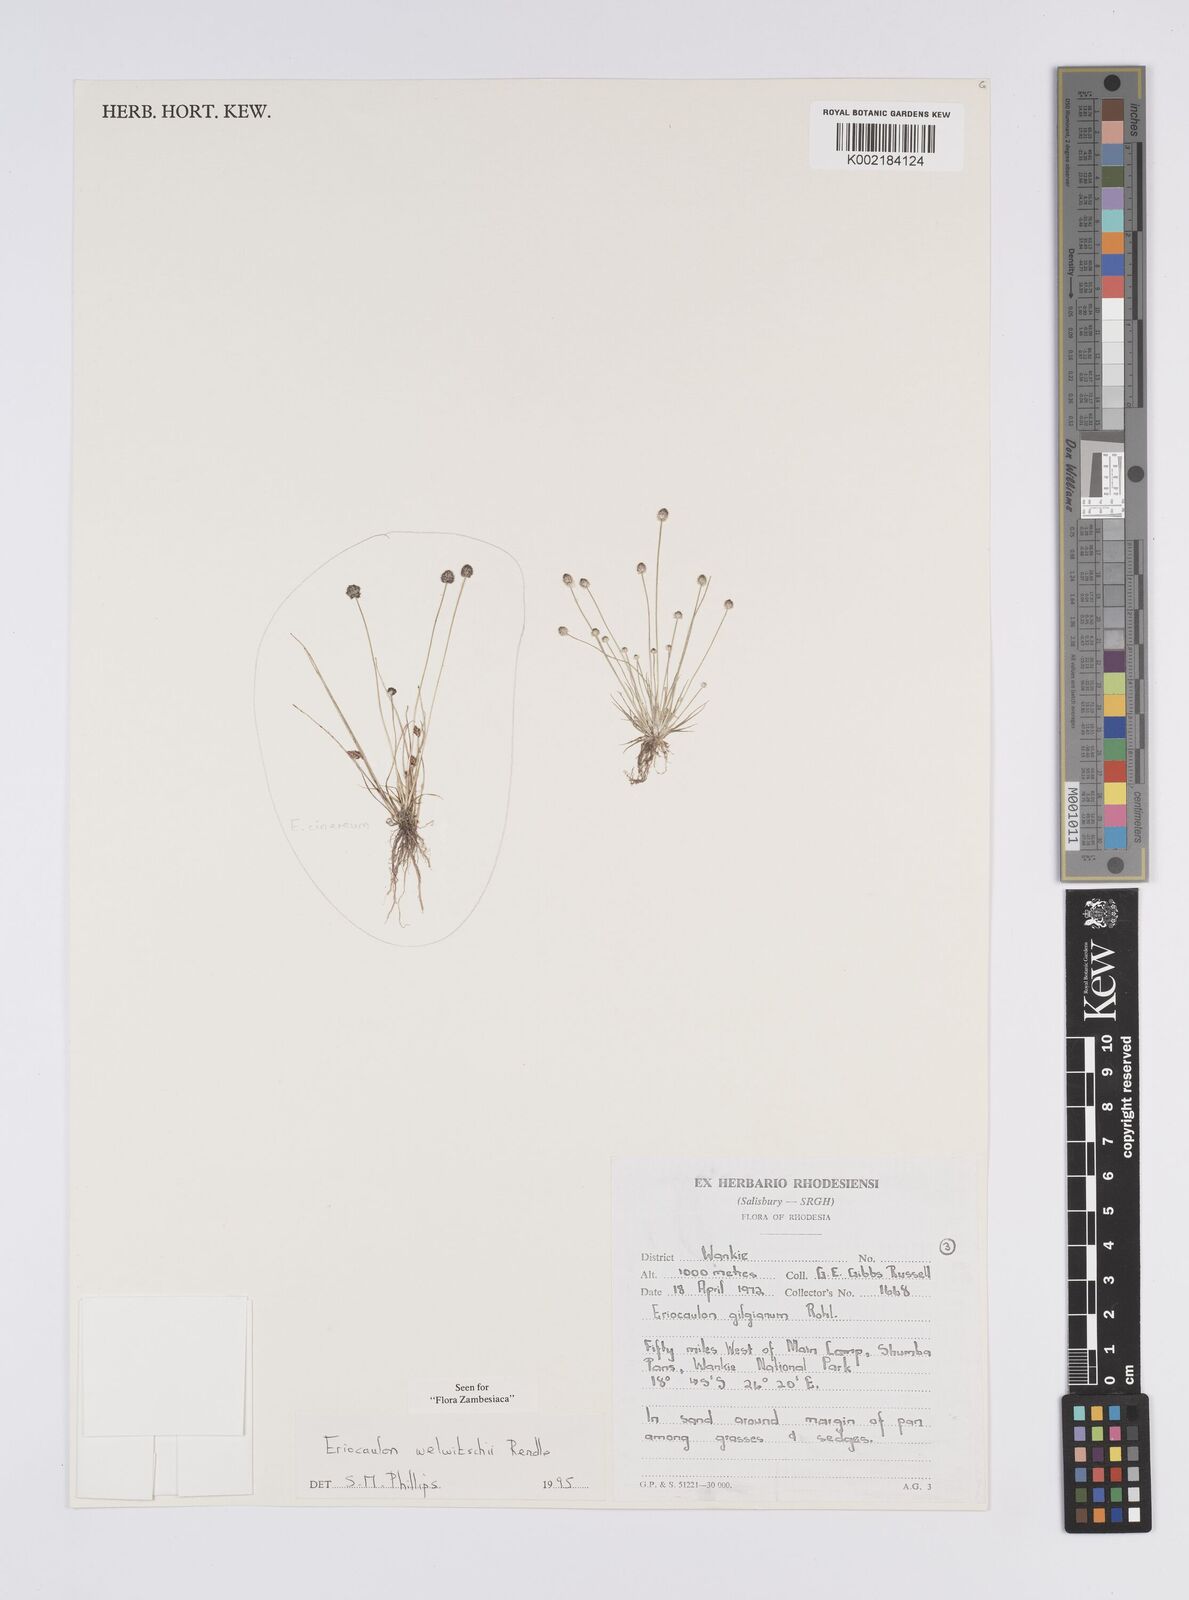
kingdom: Plantae
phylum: Tracheophyta
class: Liliopsida
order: Poales
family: Eriocaulaceae
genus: Eriocaulon
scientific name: Eriocaulon welwitschii
